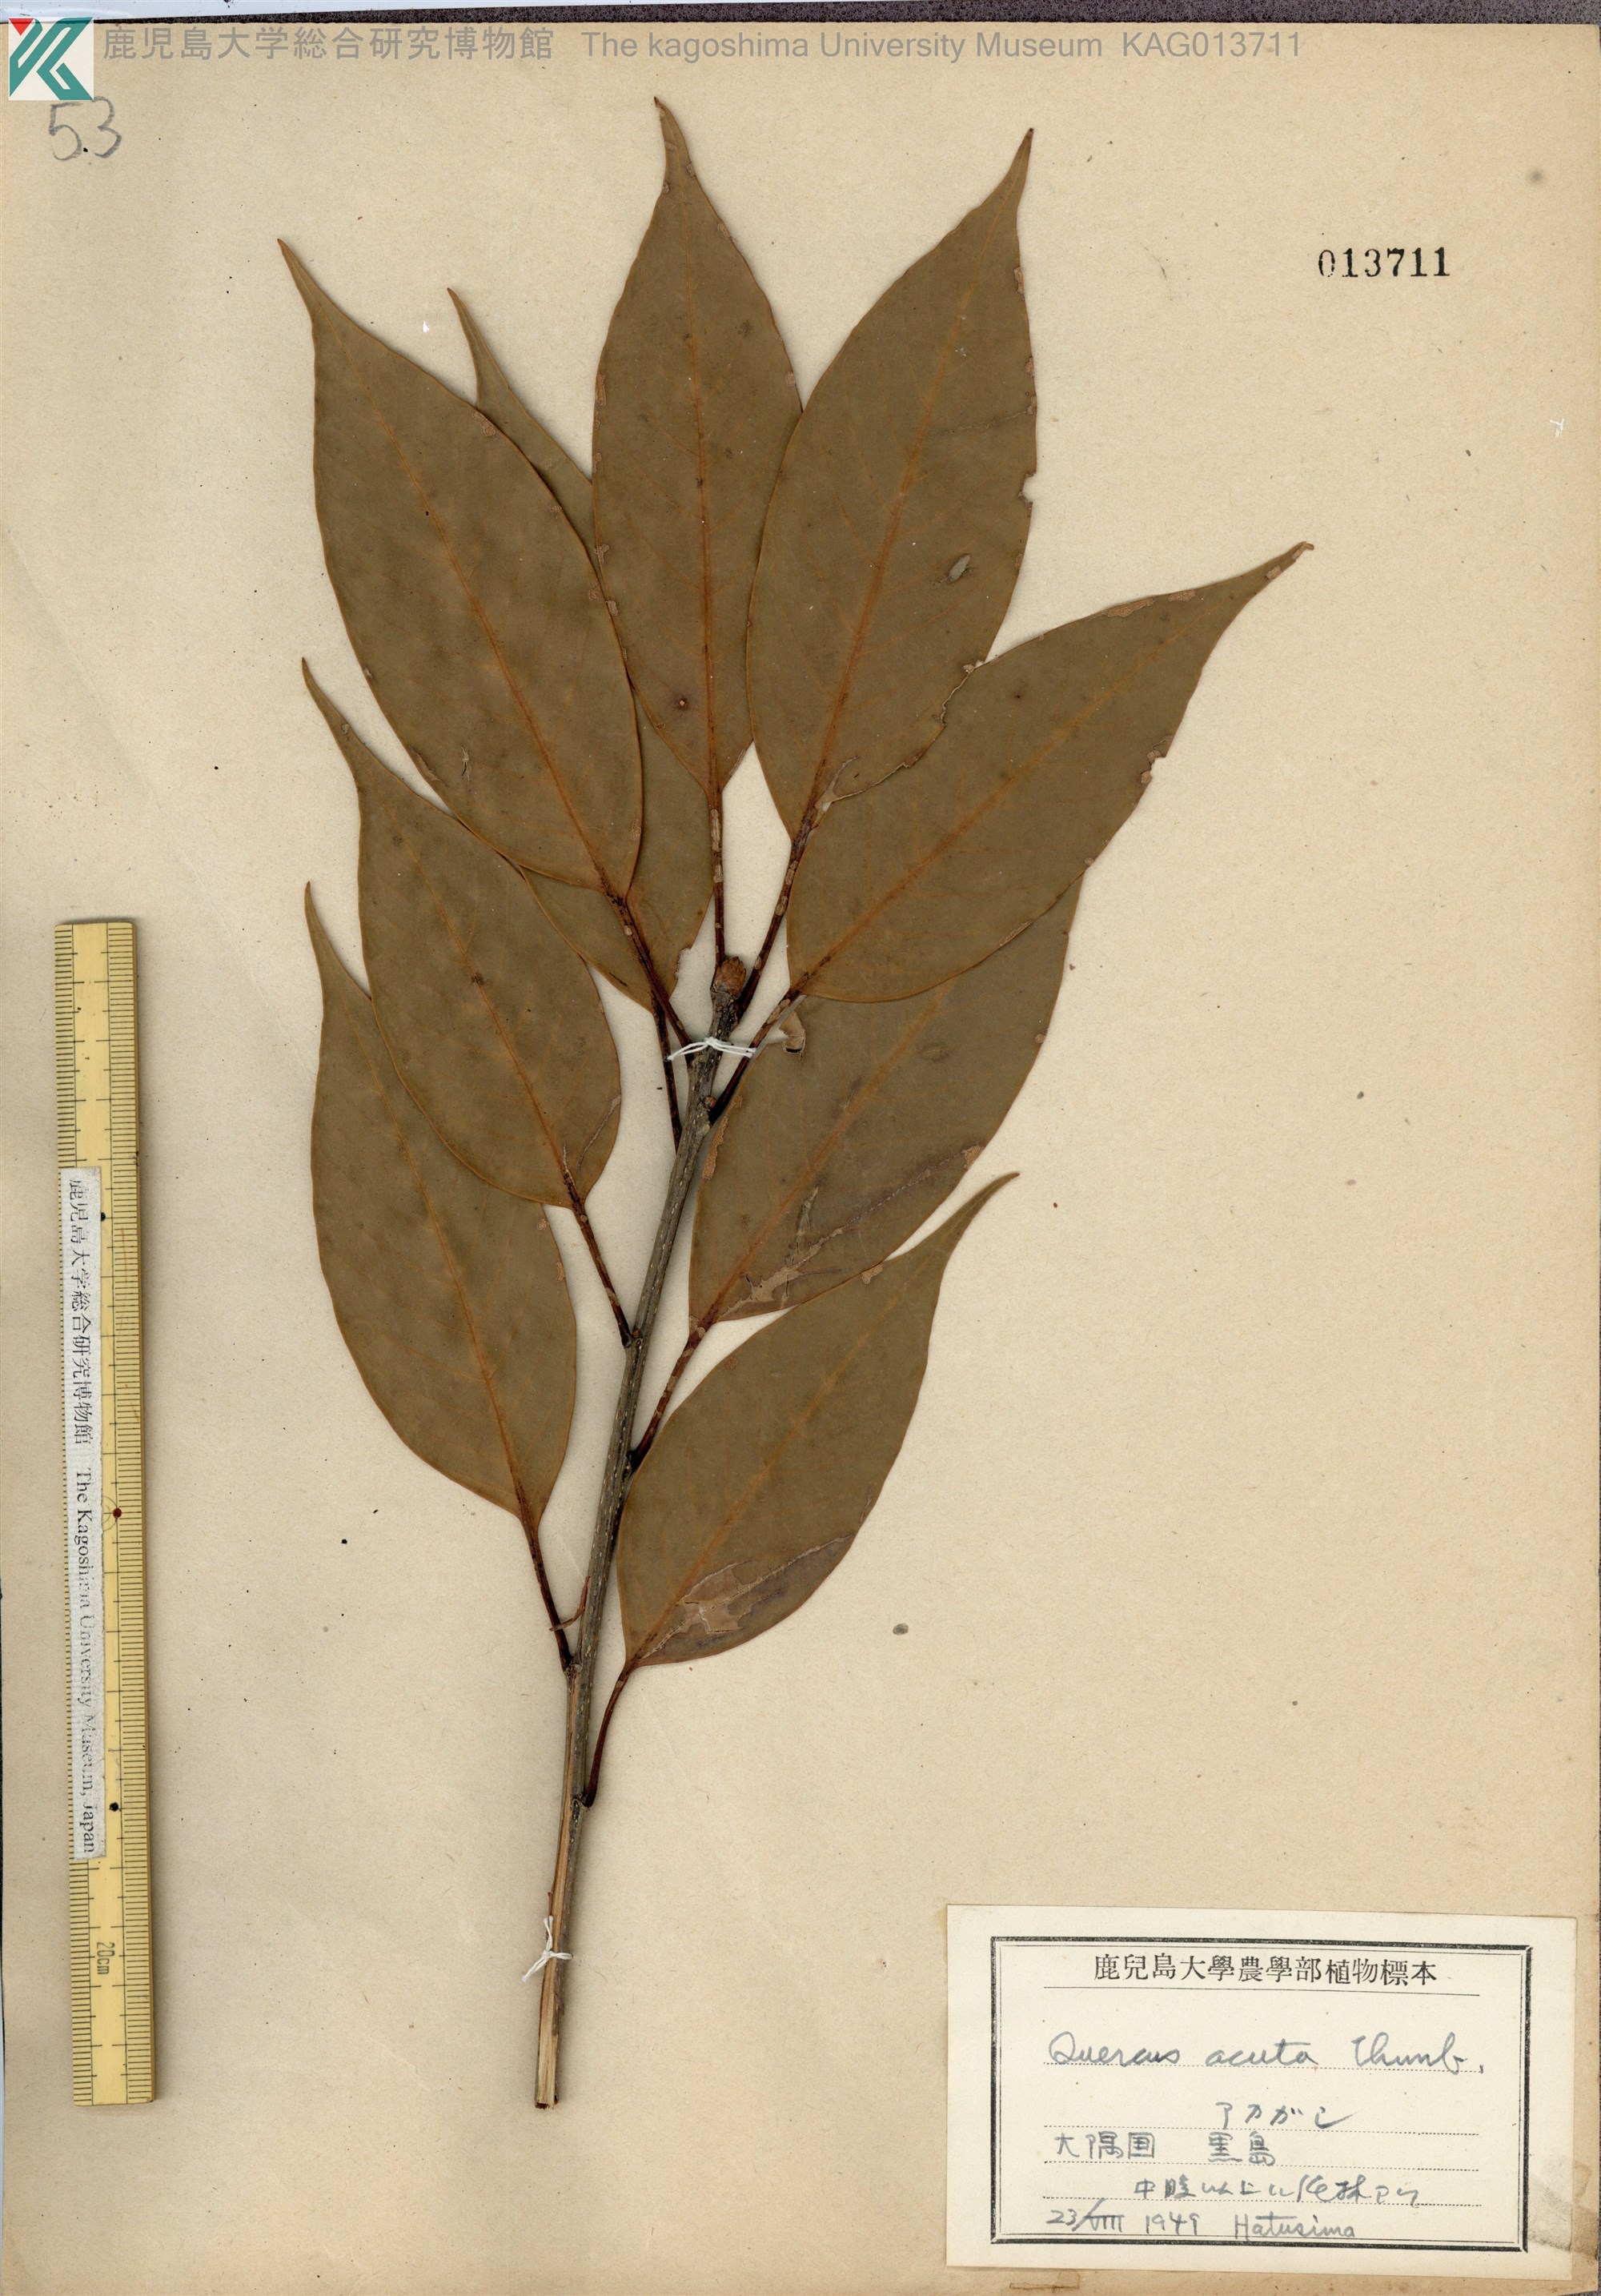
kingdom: Plantae
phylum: Tracheophyta
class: Magnoliopsida
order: Fagales
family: Fagaceae
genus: Quercus
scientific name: Quercus acuta
